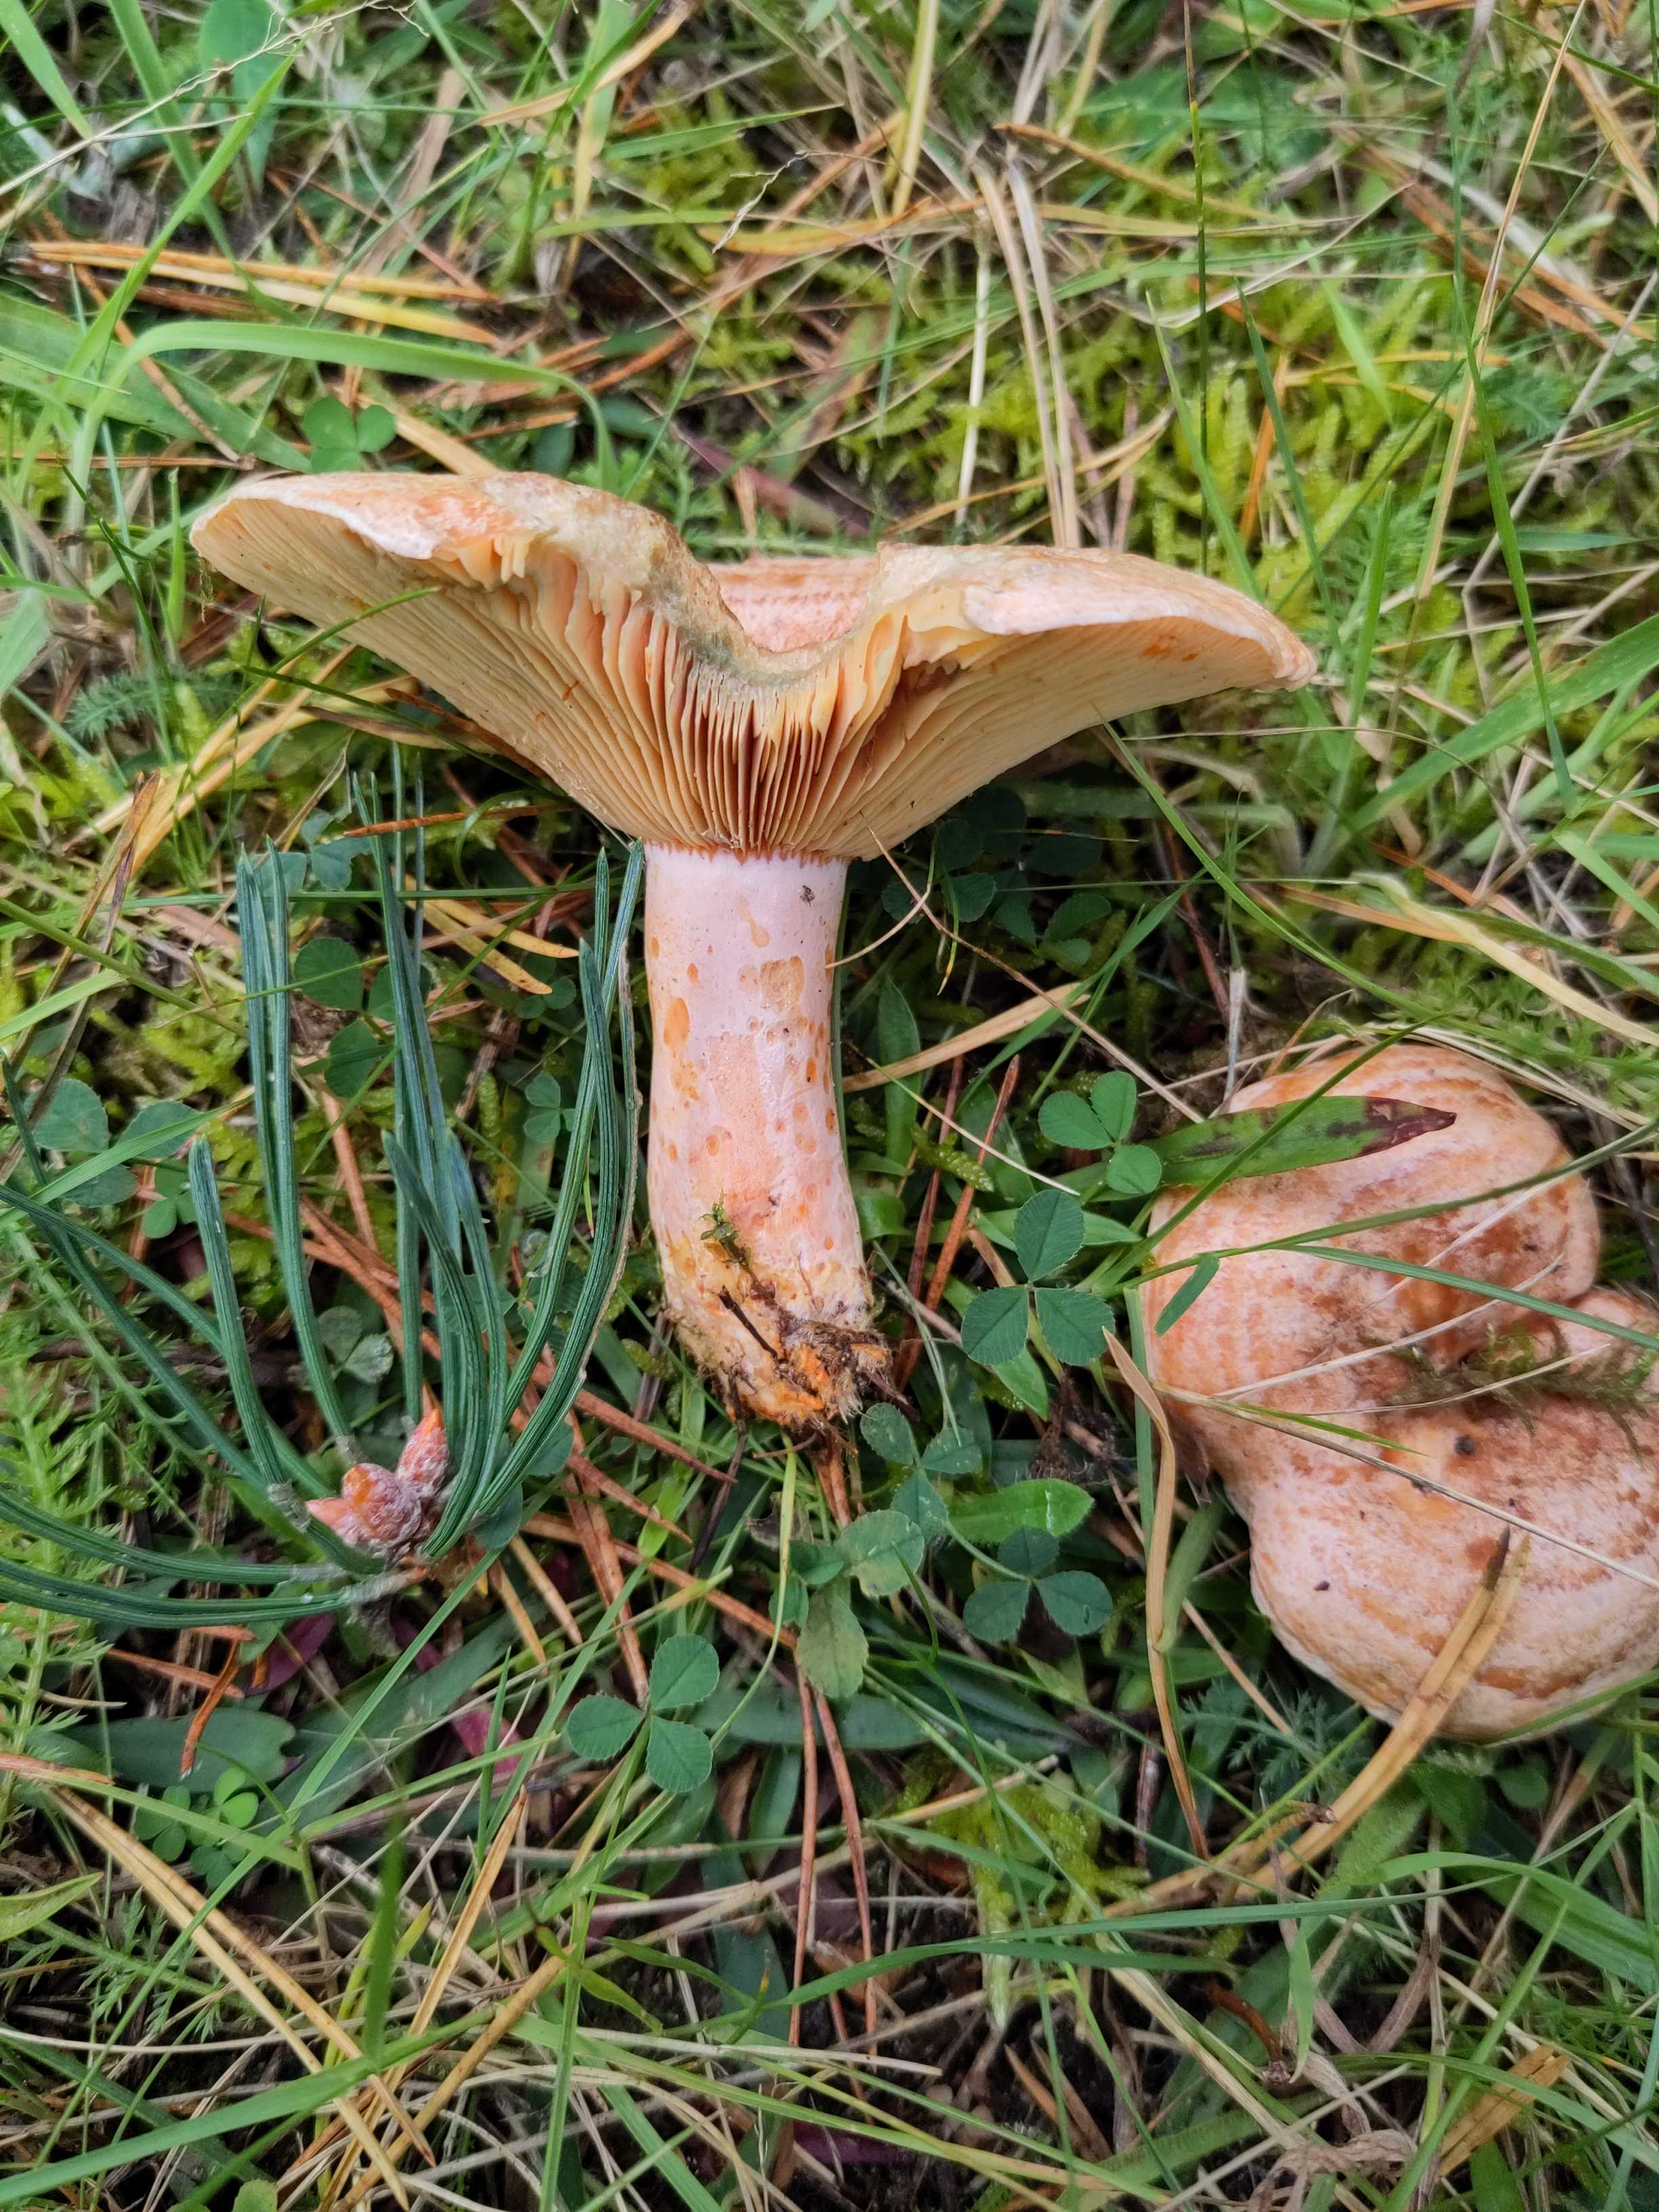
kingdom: Fungi
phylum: Basidiomycota
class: Agaricomycetes
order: Russulales
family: Russulaceae
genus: Lactarius
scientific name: Lactarius deliciosus
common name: velsmagende mælkehat
